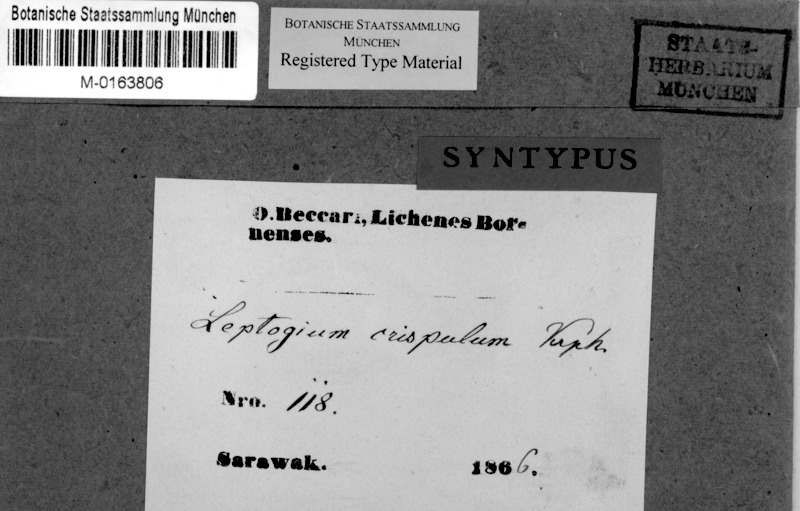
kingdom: Fungi
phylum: Ascomycota
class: Lecanoromycetes
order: Peltigerales
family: Collemataceae
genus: Leptogium
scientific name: Leptogium
